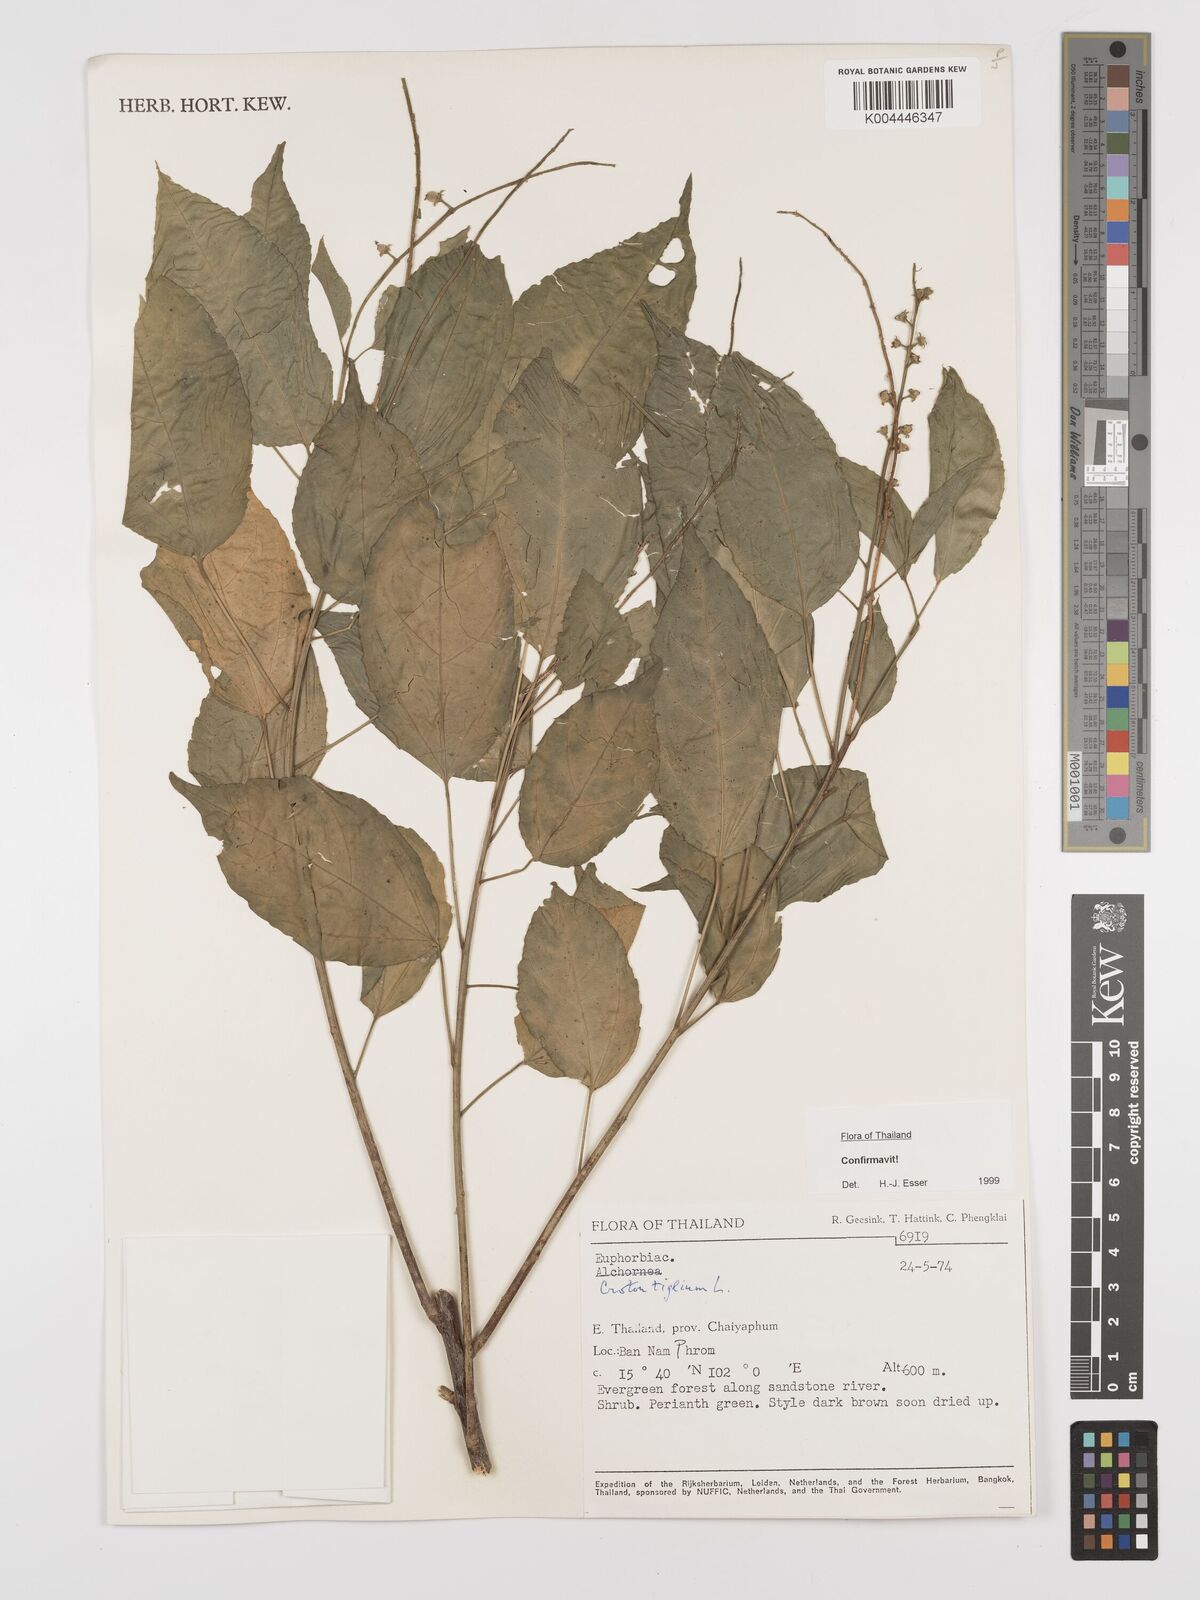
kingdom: Plantae
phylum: Tracheophyta
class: Magnoliopsida
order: Malpighiales
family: Euphorbiaceae
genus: Croton
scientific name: Croton tiglium
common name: Purging croton
